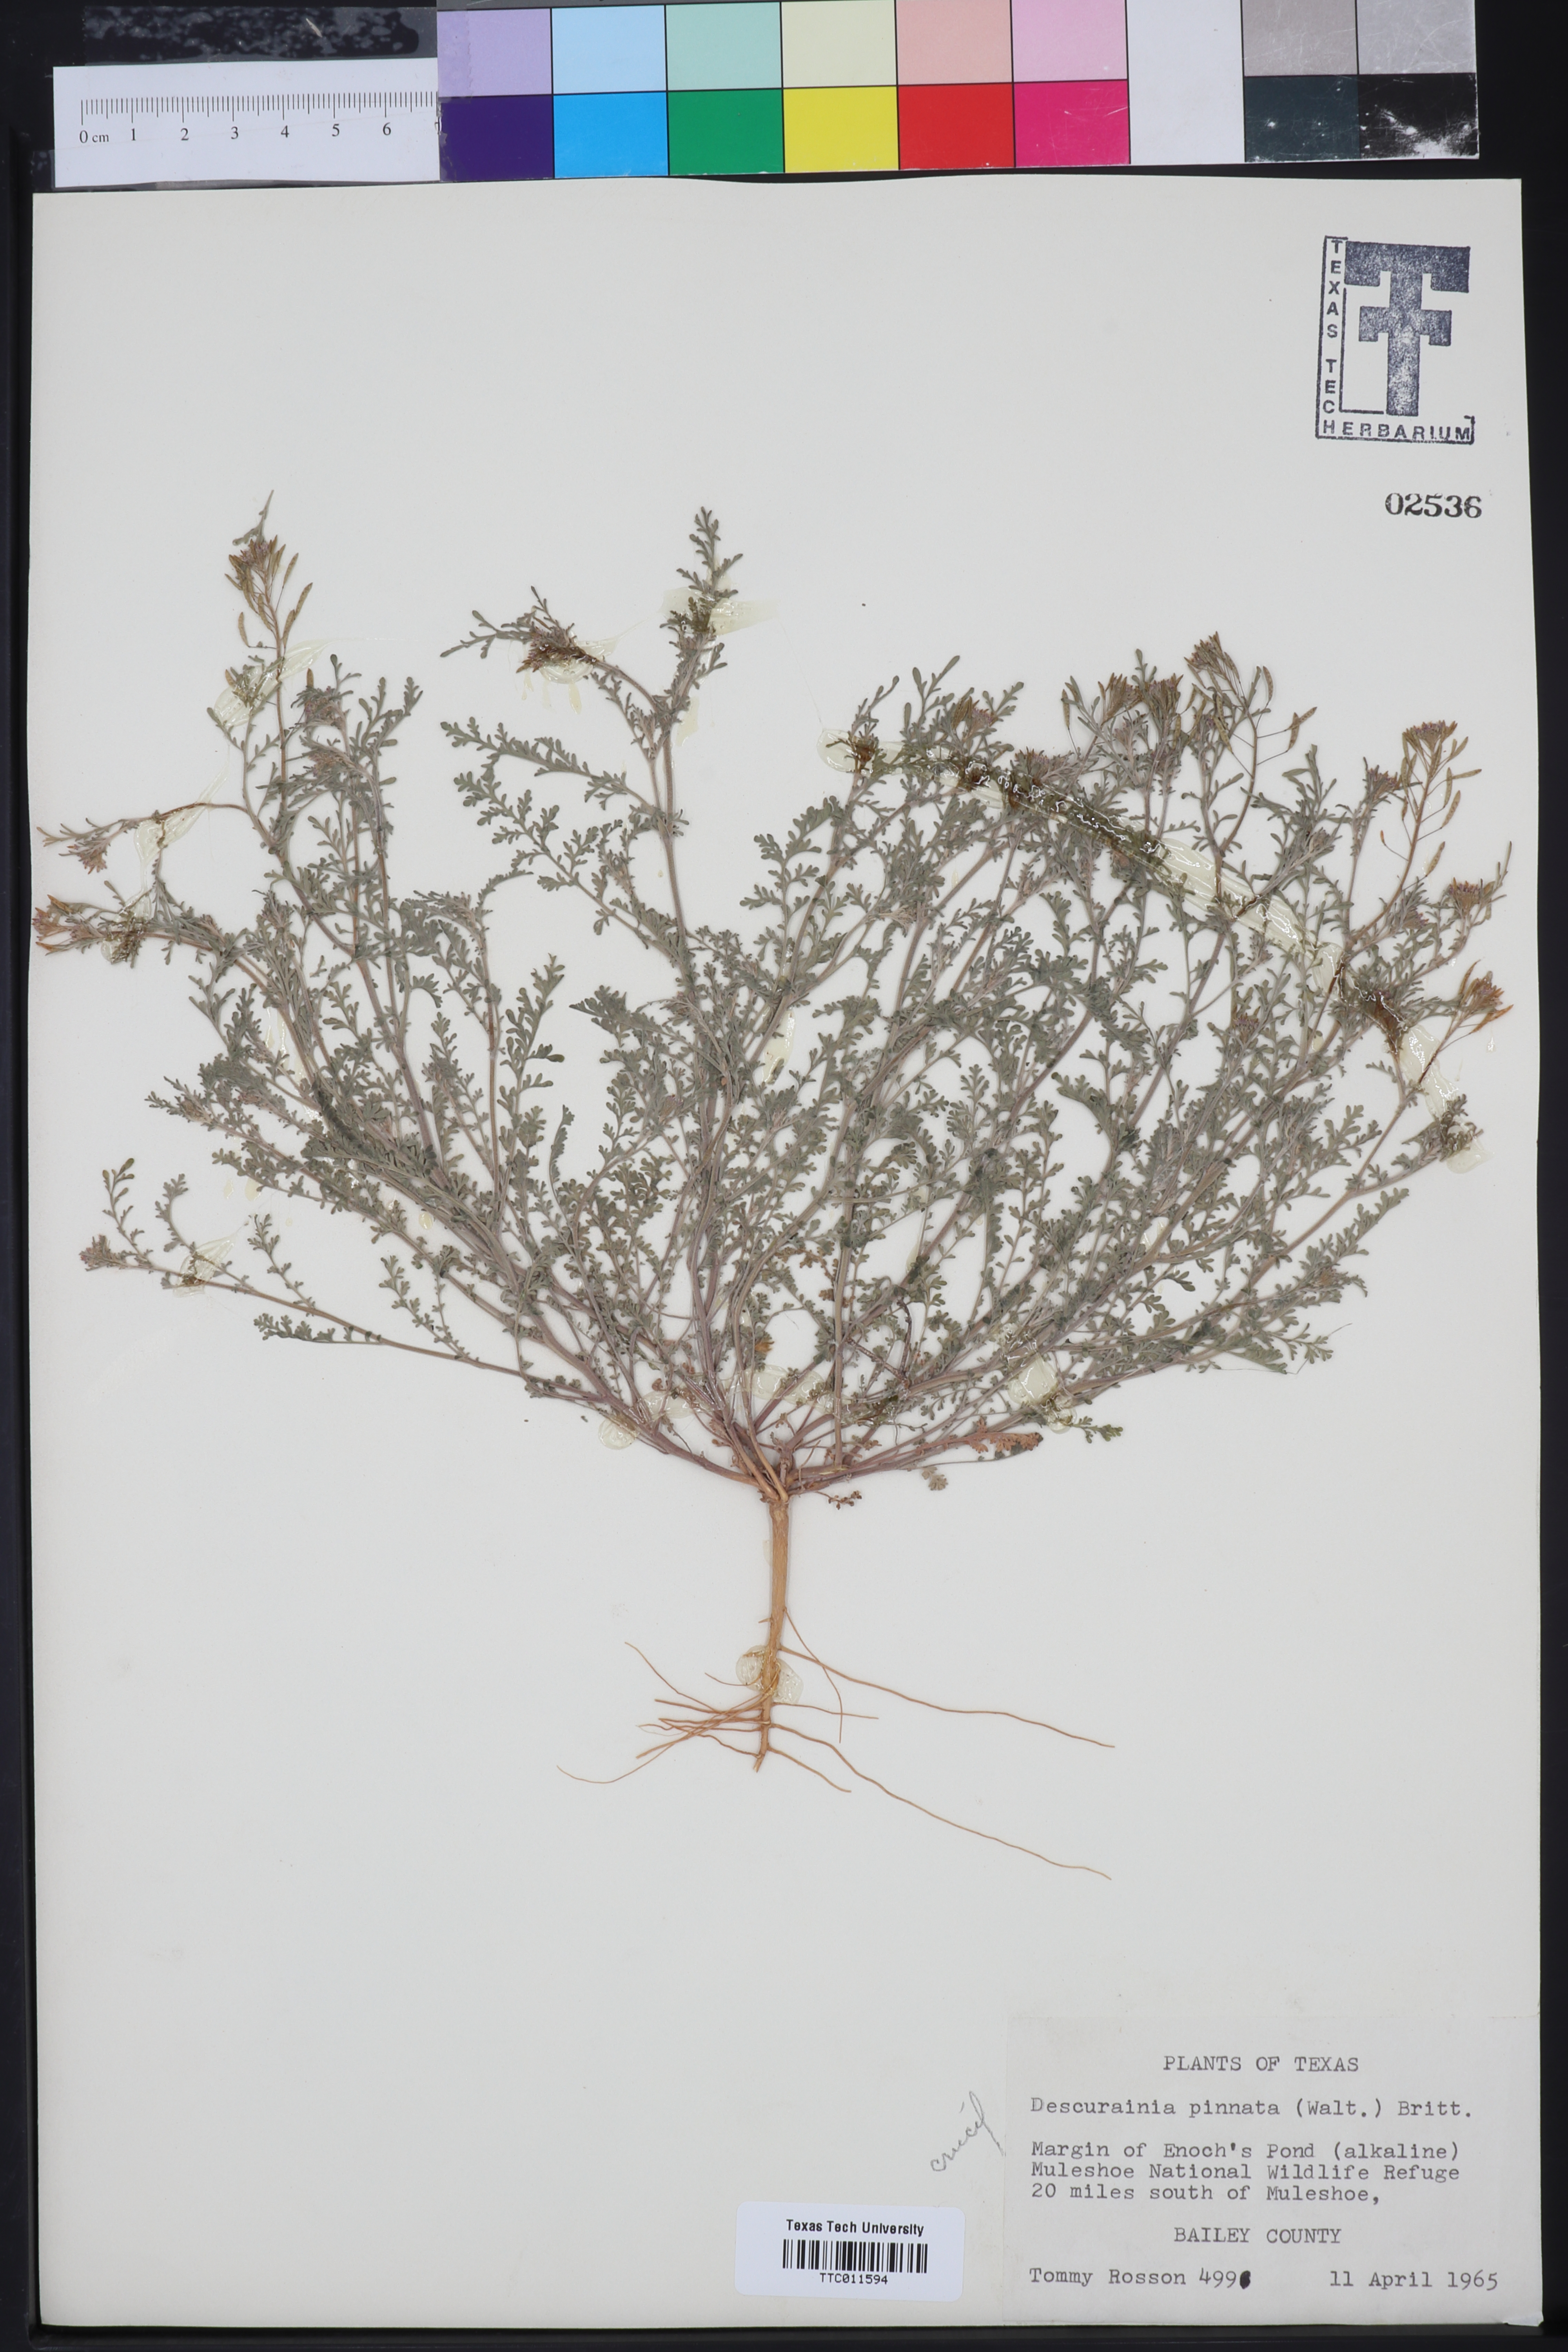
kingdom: Plantae
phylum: Tracheophyta
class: Magnoliopsida
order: Brassicales
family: Brassicaceae
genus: Descurainia
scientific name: Descurainia pinnata
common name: Western tansy mustard
